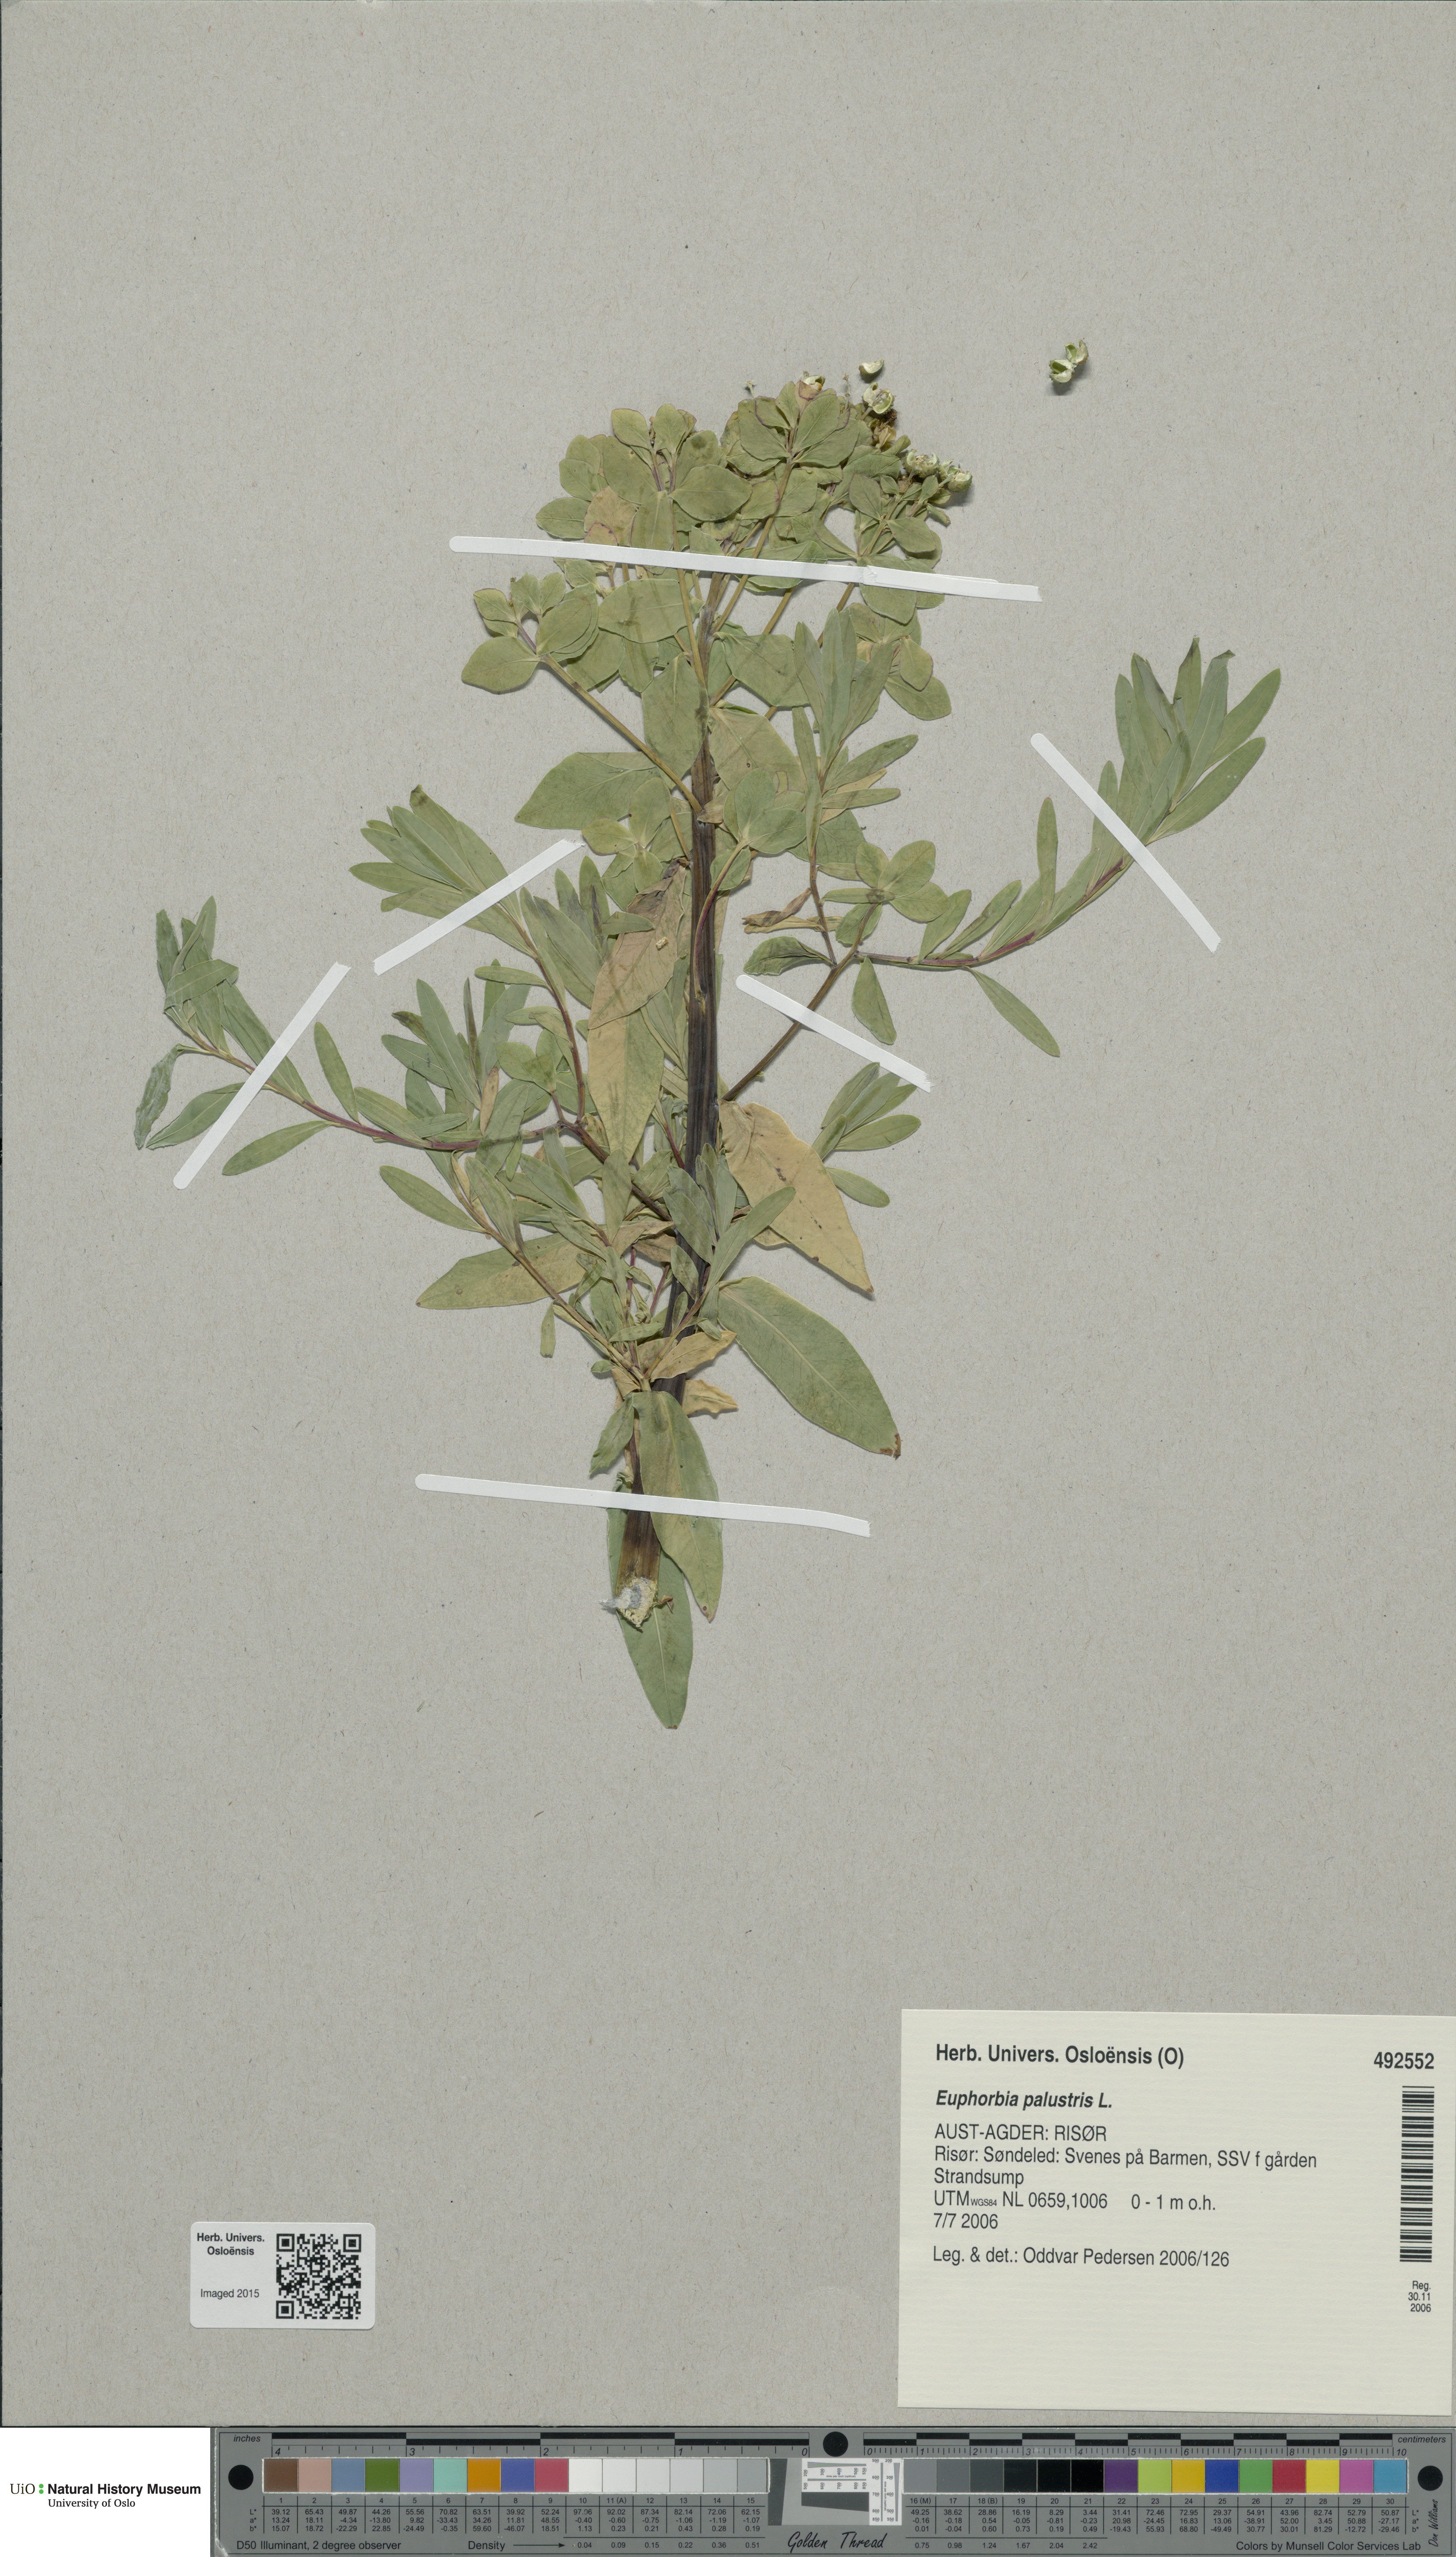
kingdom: Plantae
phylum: Tracheophyta
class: Magnoliopsida
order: Malpighiales
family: Euphorbiaceae
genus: Euphorbia
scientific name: Euphorbia palustris
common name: Marsh spurge
